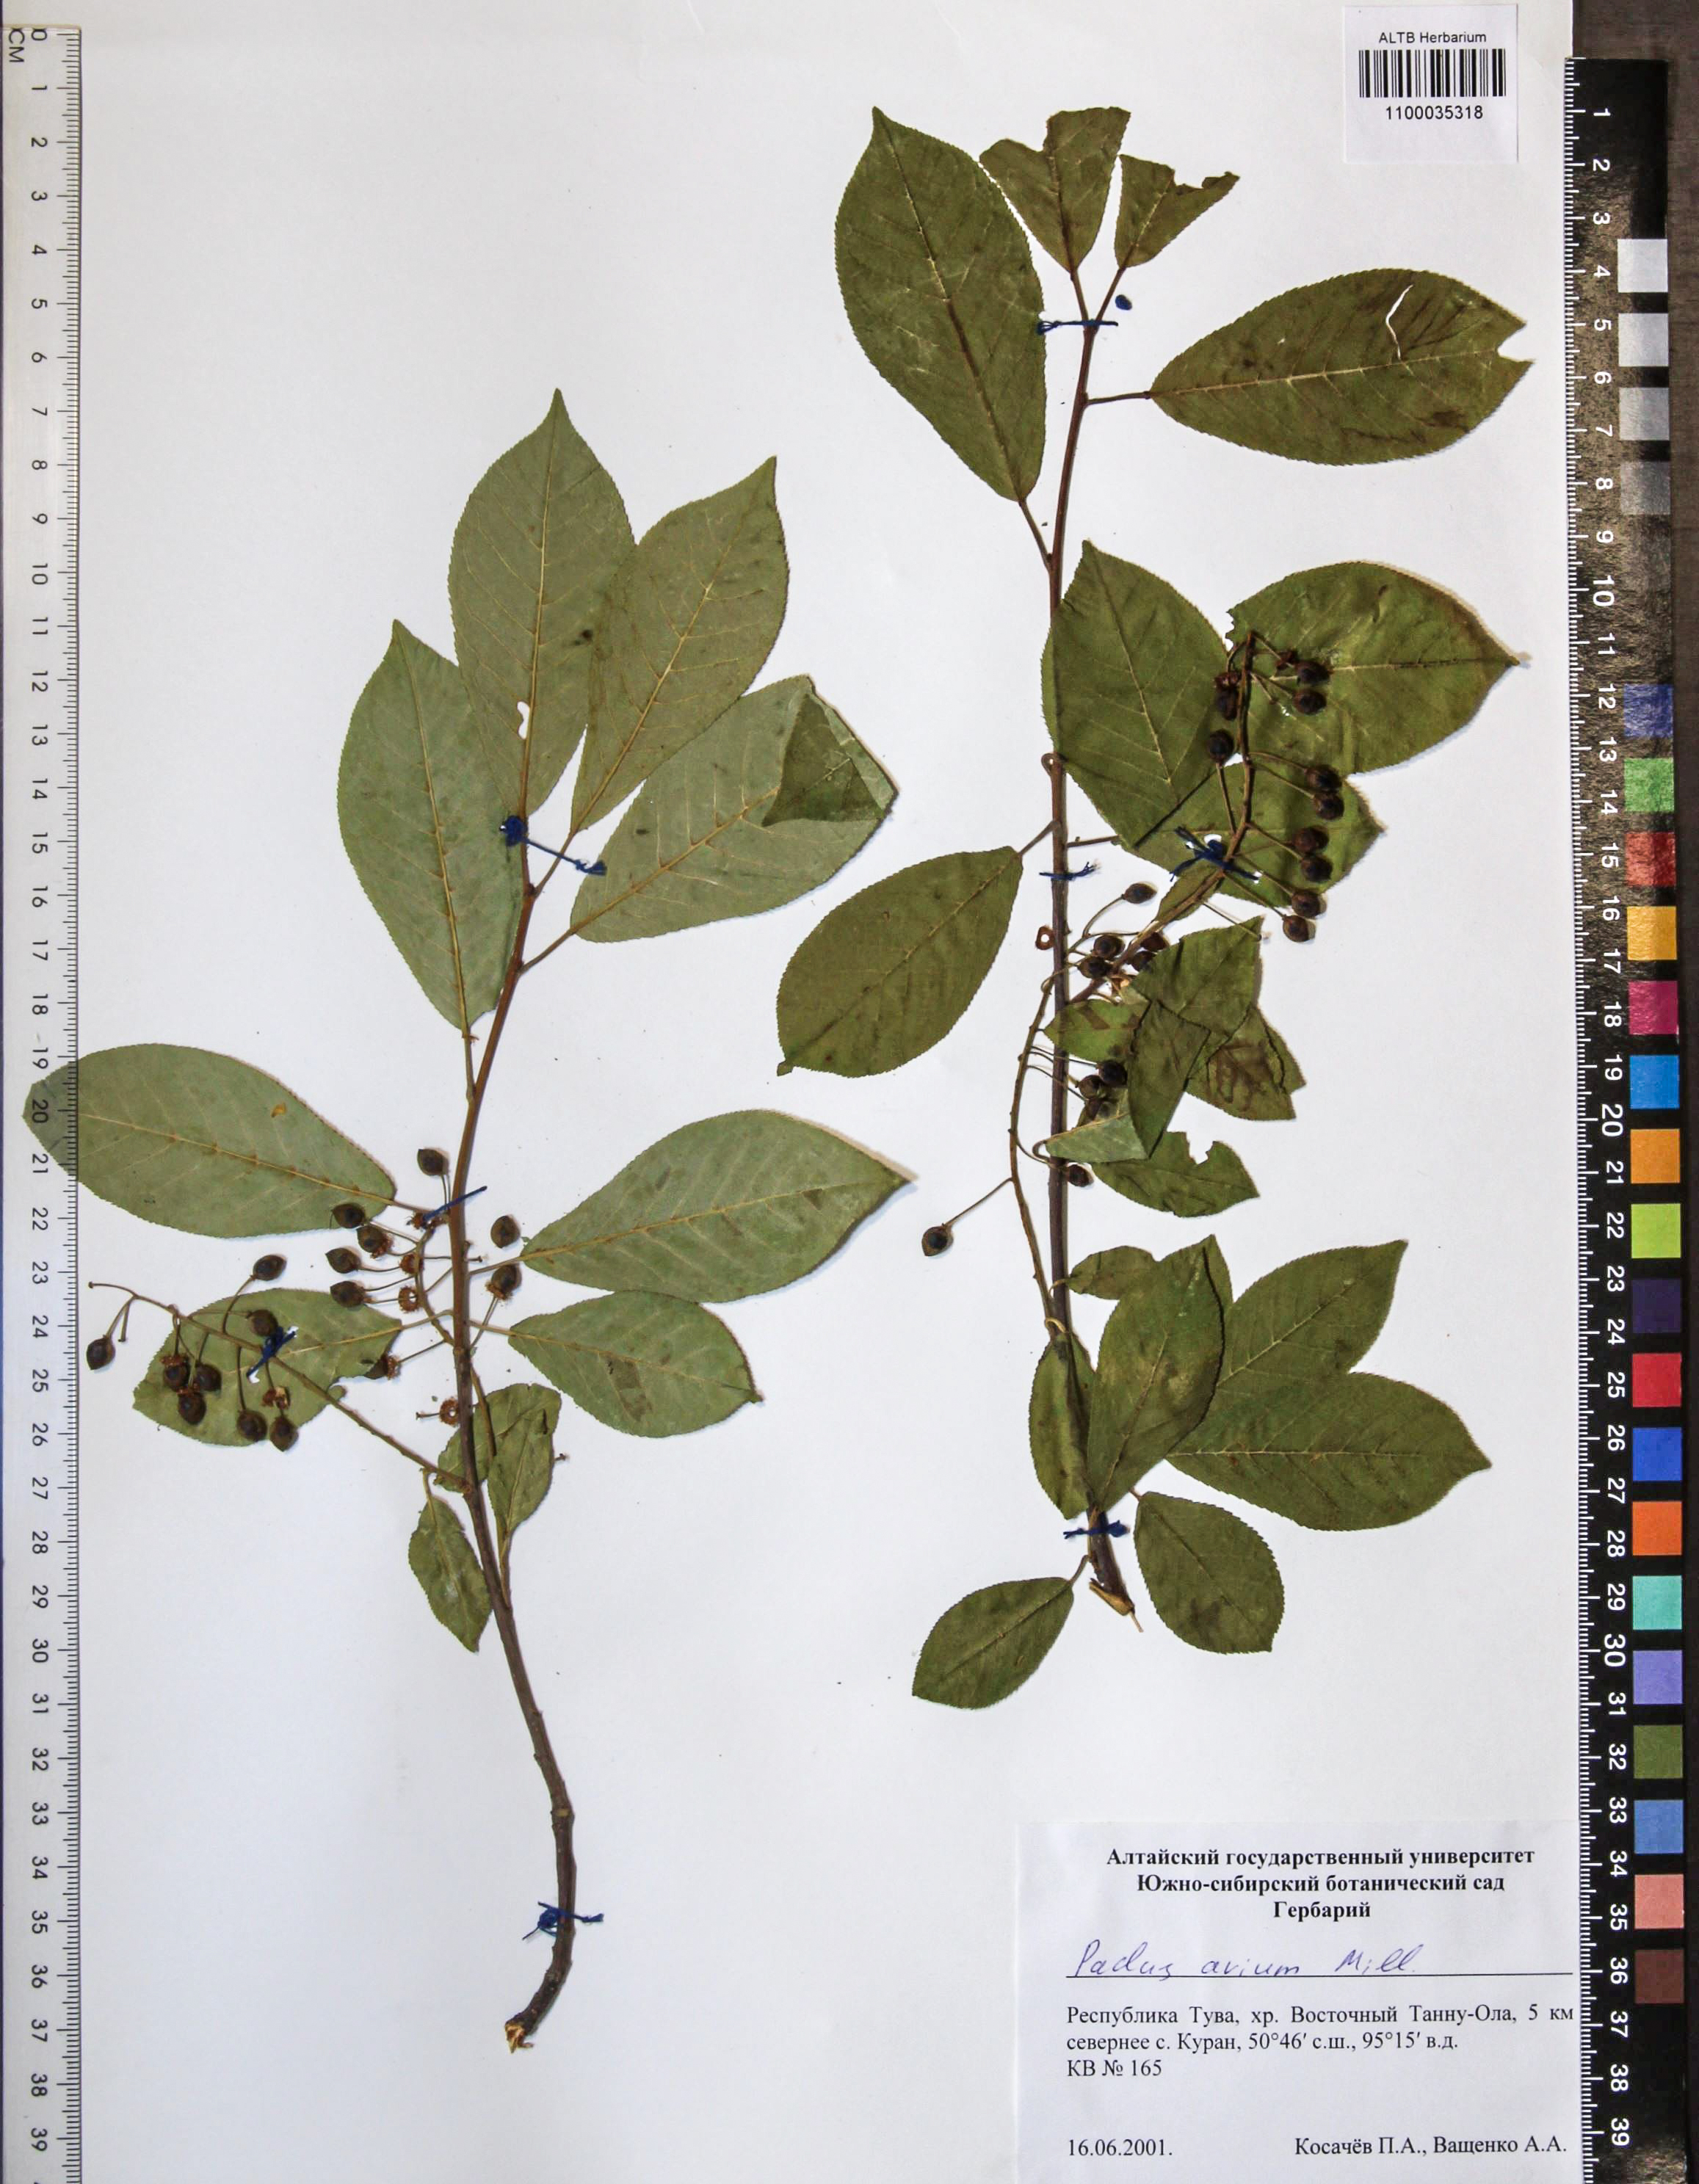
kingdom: Plantae
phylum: Tracheophyta
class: Magnoliopsida
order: Rosales
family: Rosaceae
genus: Prunus
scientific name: Prunus padus
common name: Bird cherry
